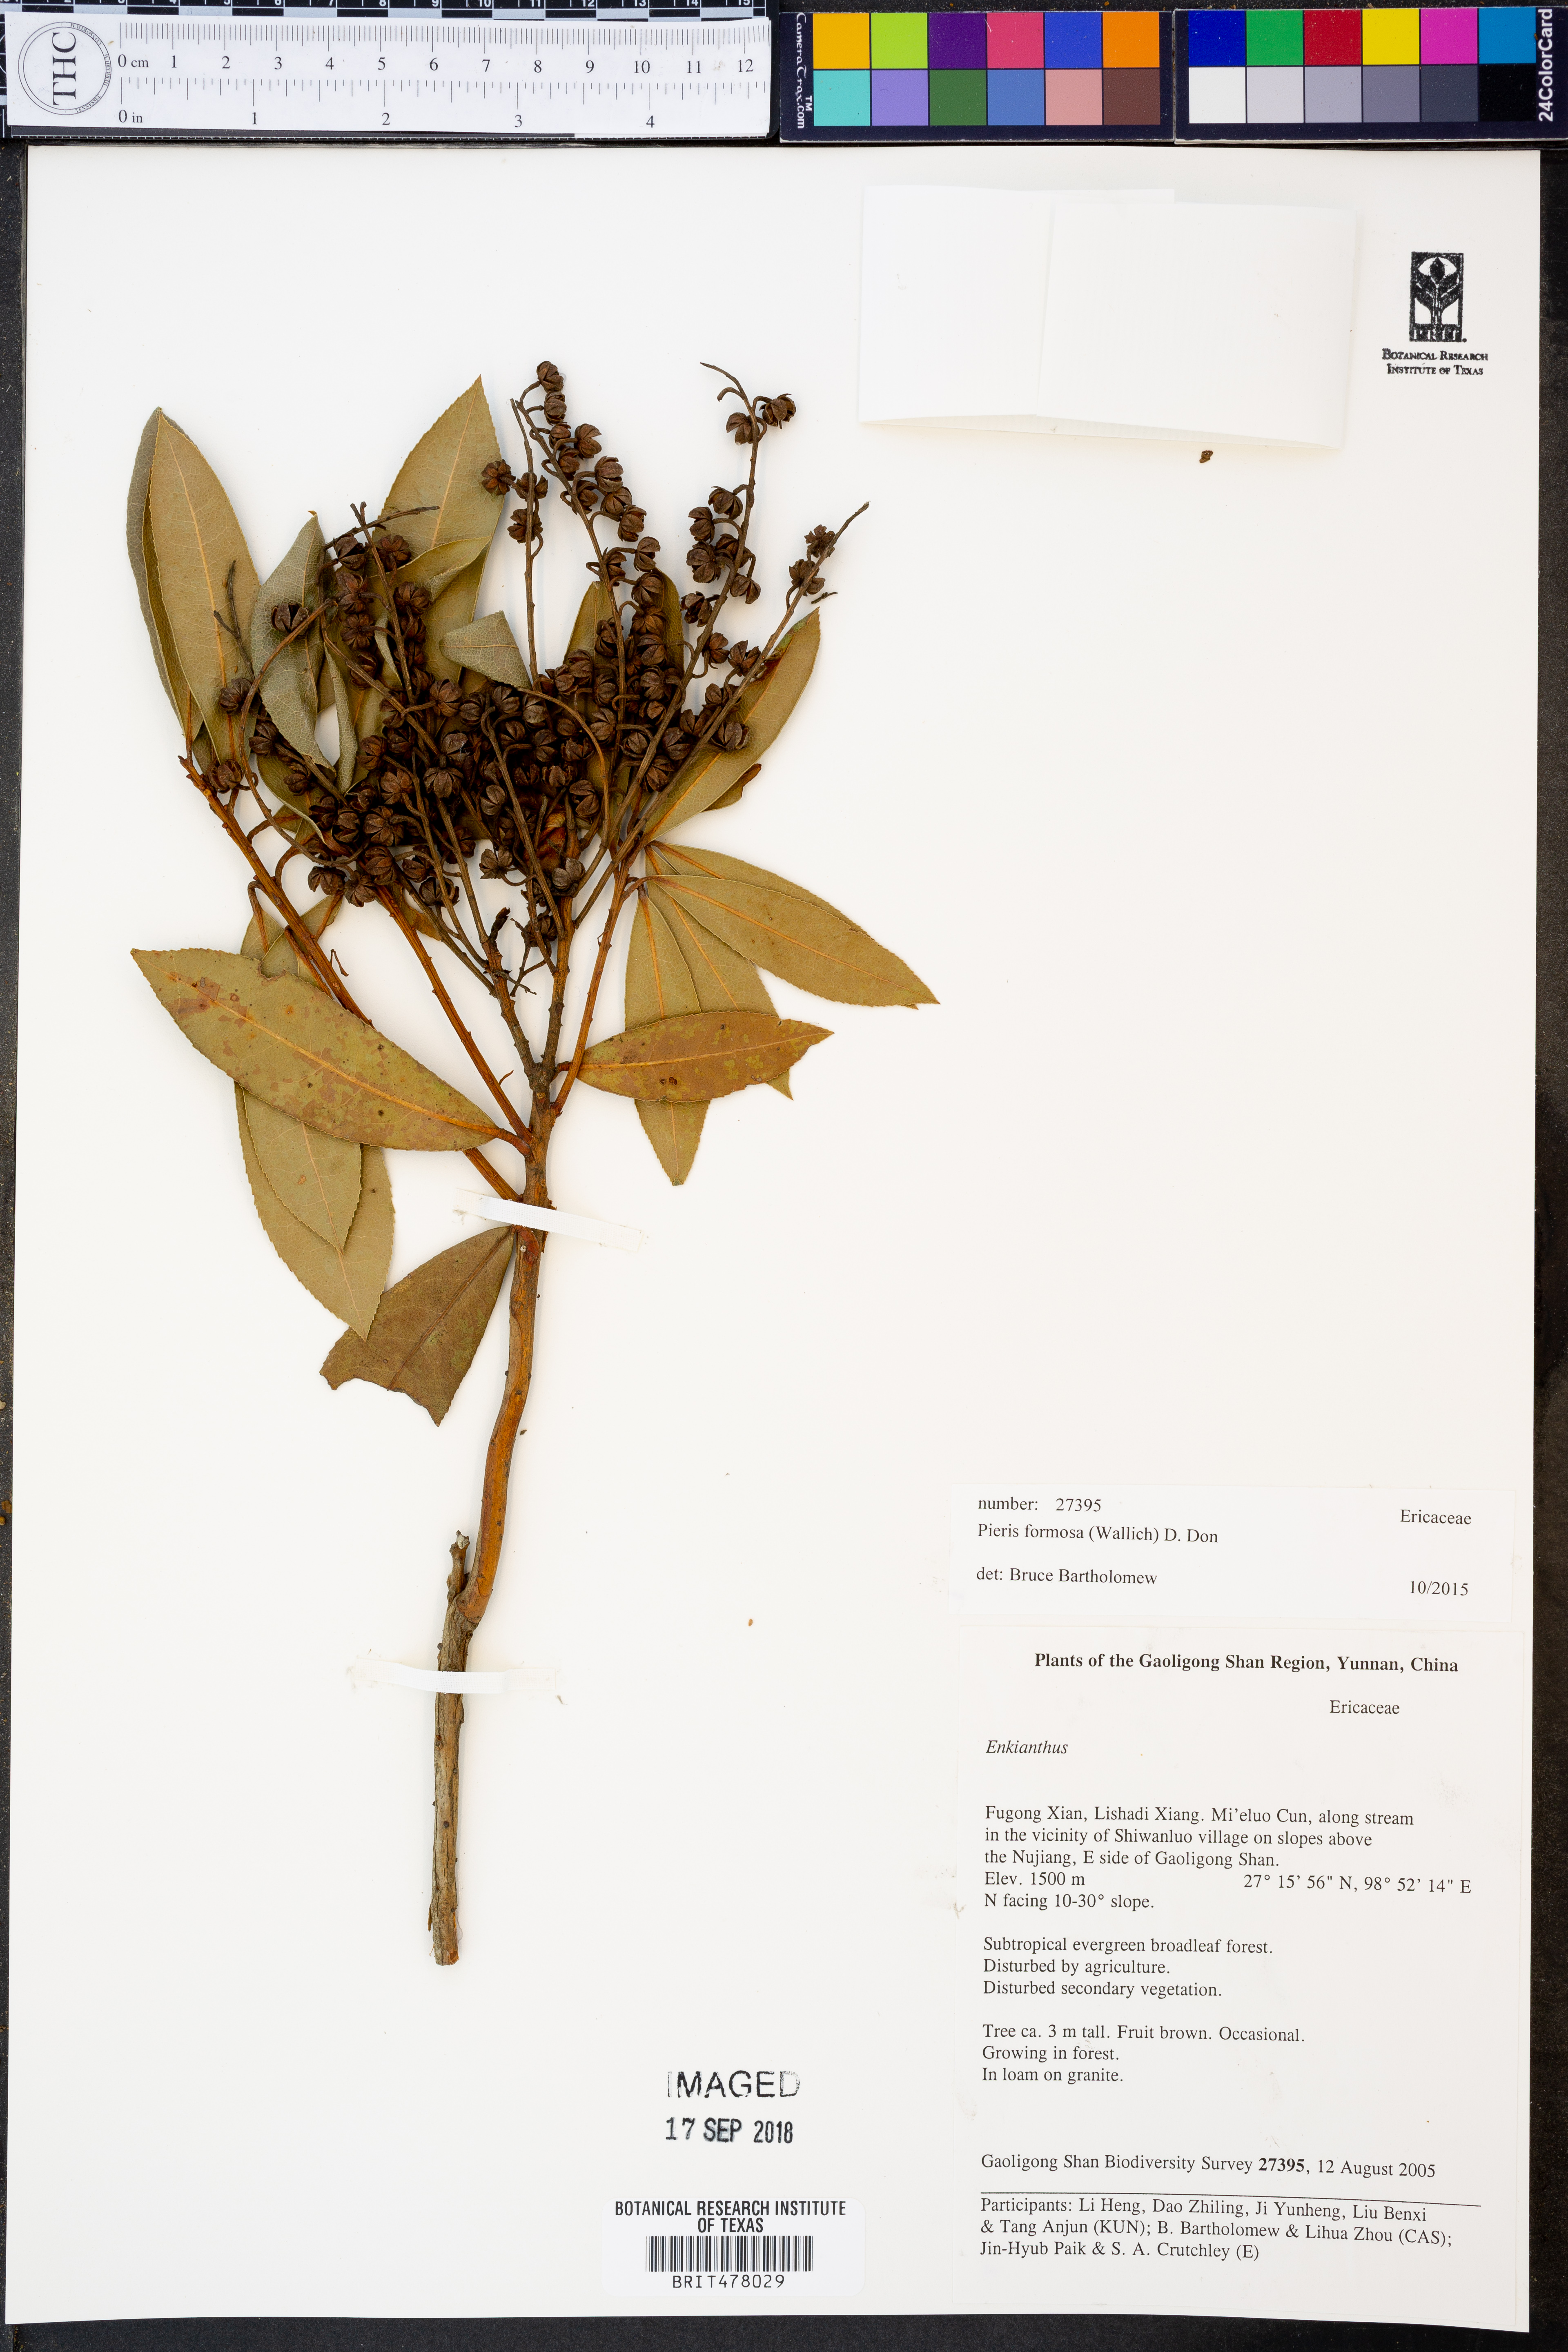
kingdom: Plantae
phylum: Tracheophyta
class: Magnoliopsida
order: Ericales
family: Ericaceae
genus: Pieris
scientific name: Pieris formosa
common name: Formosan pieris
